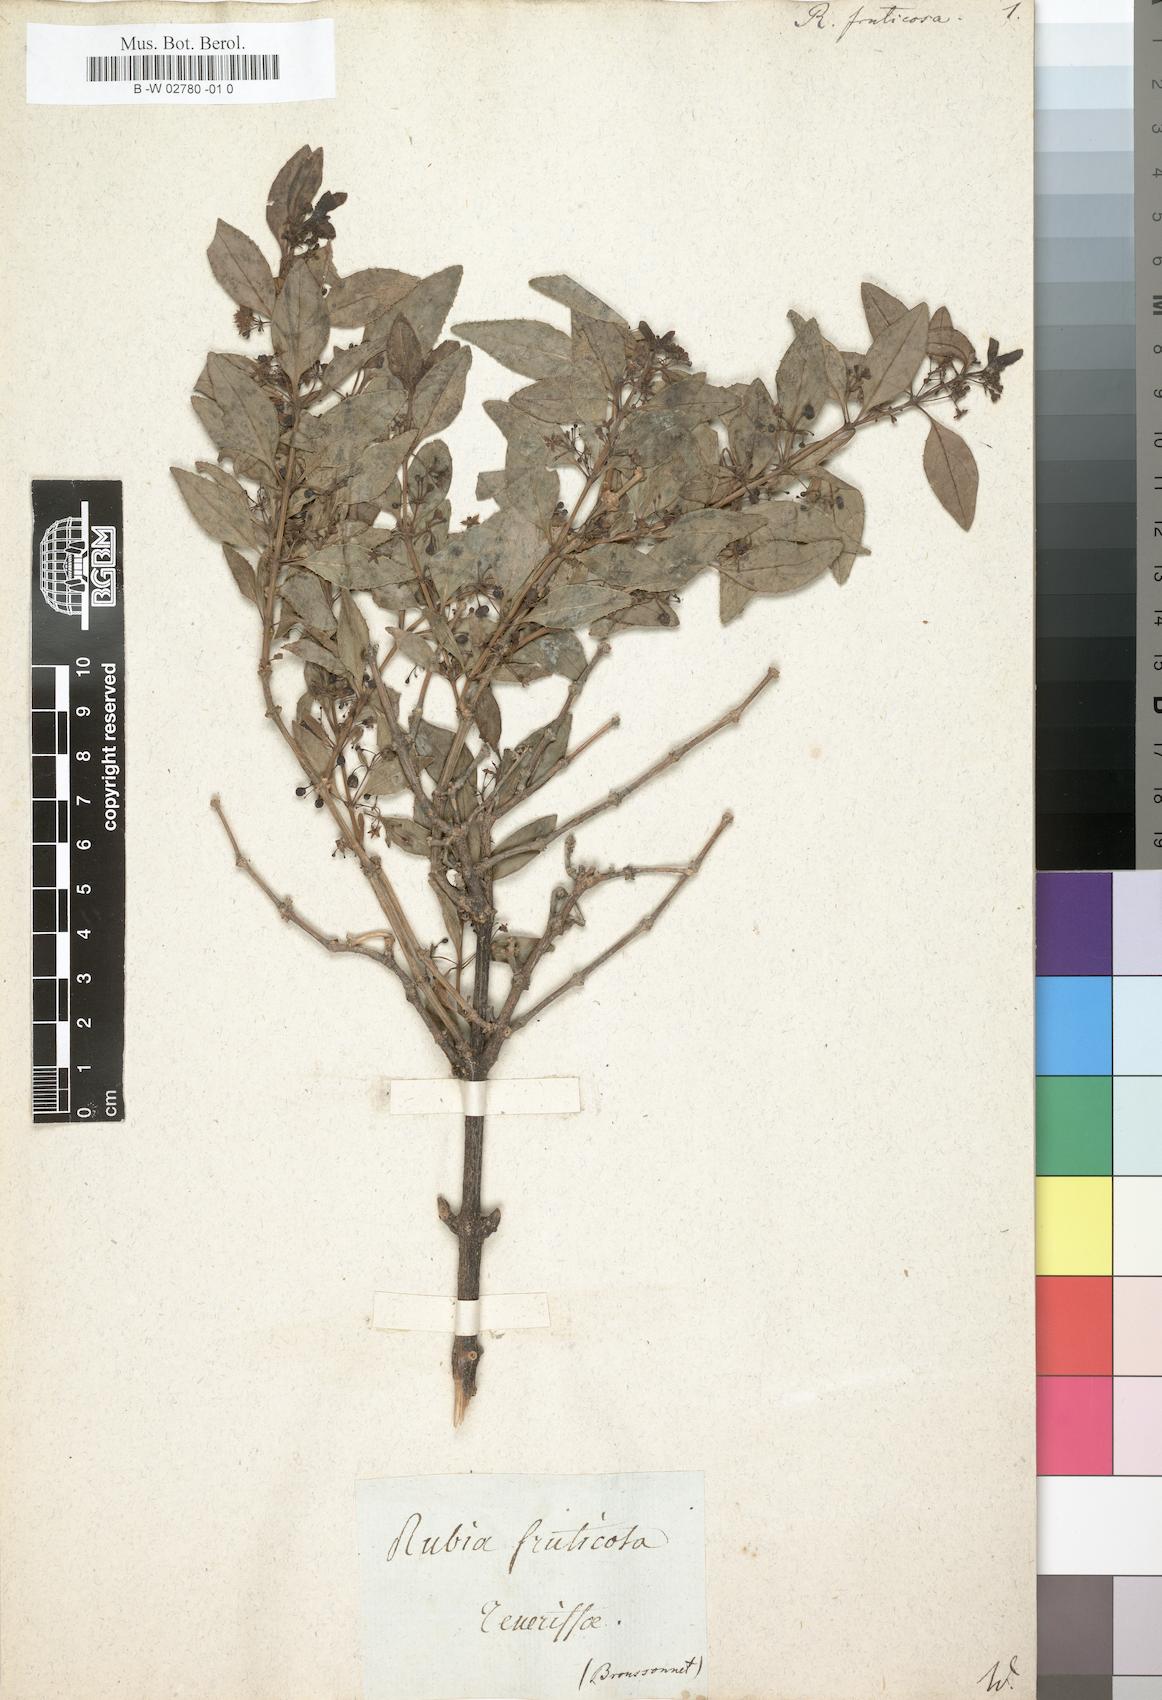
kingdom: Plantae
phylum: Tracheophyta
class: Magnoliopsida
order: Gentianales
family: Rubiaceae
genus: Rubia
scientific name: Rubia fruticosa
